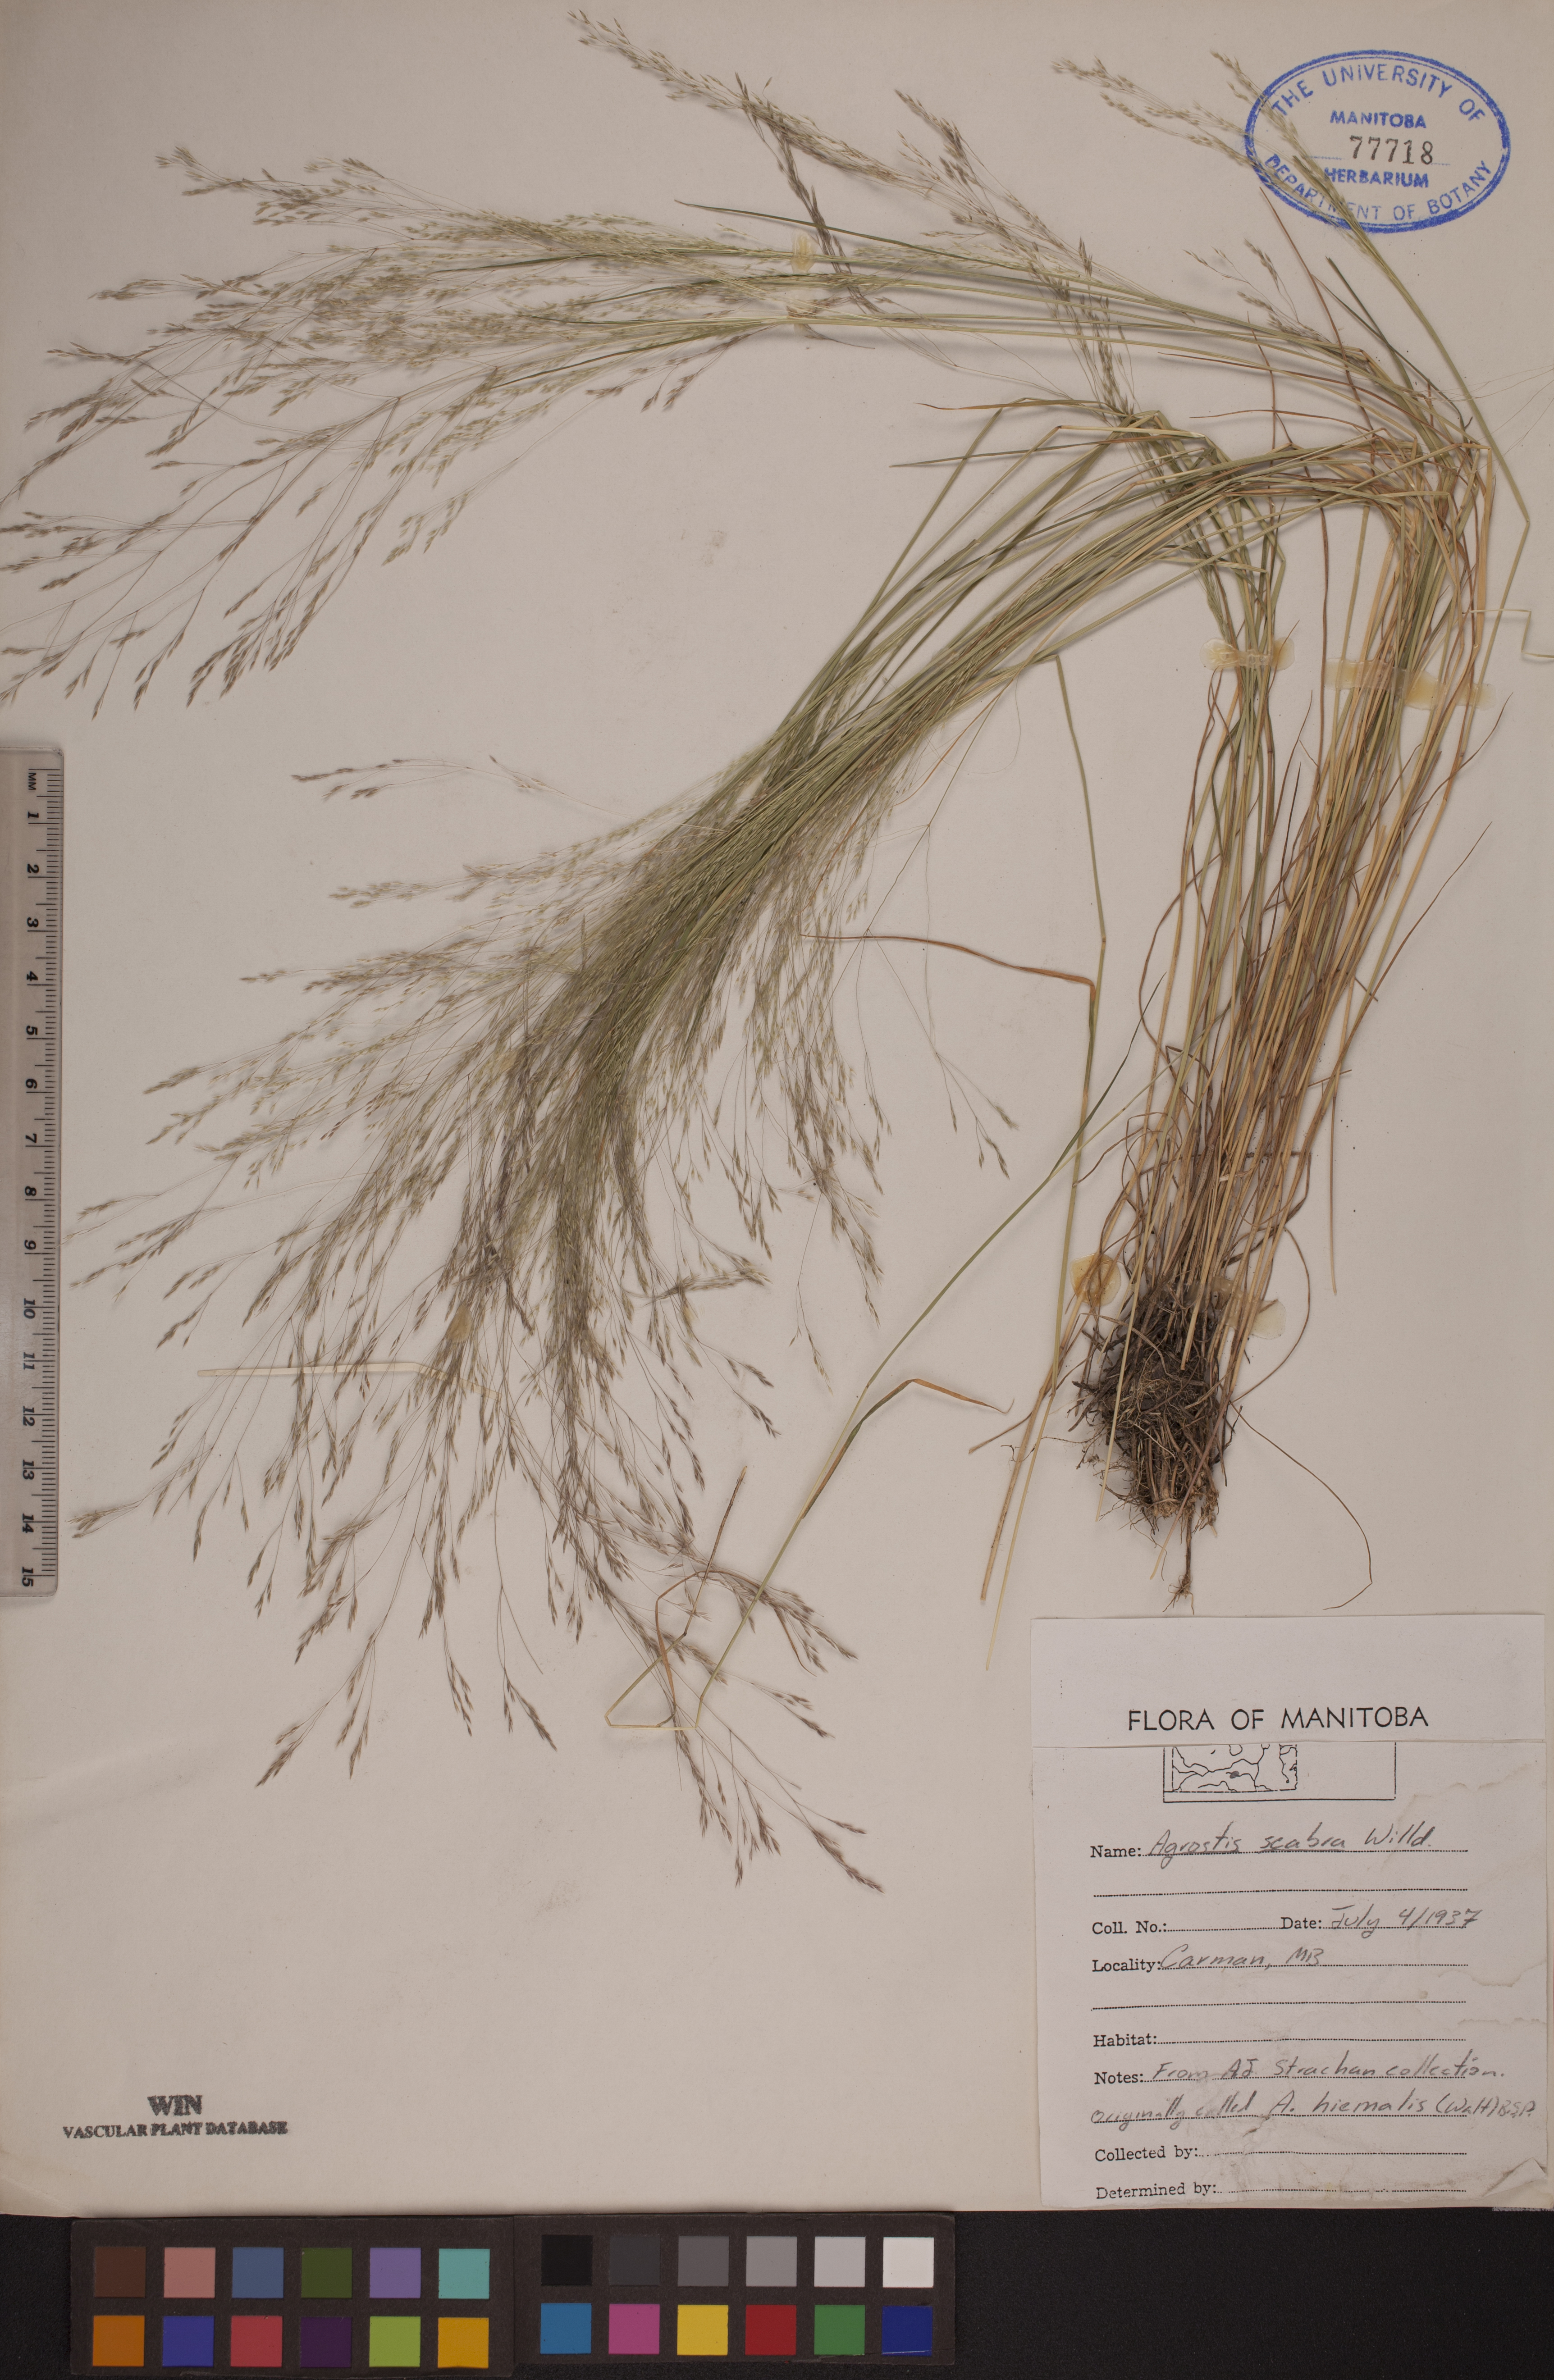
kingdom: Plantae
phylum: Tracheophyta
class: Liliopsida
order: Poales
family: Poaceae
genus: Agrostis
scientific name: Agrostis scabra
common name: Rough bent
